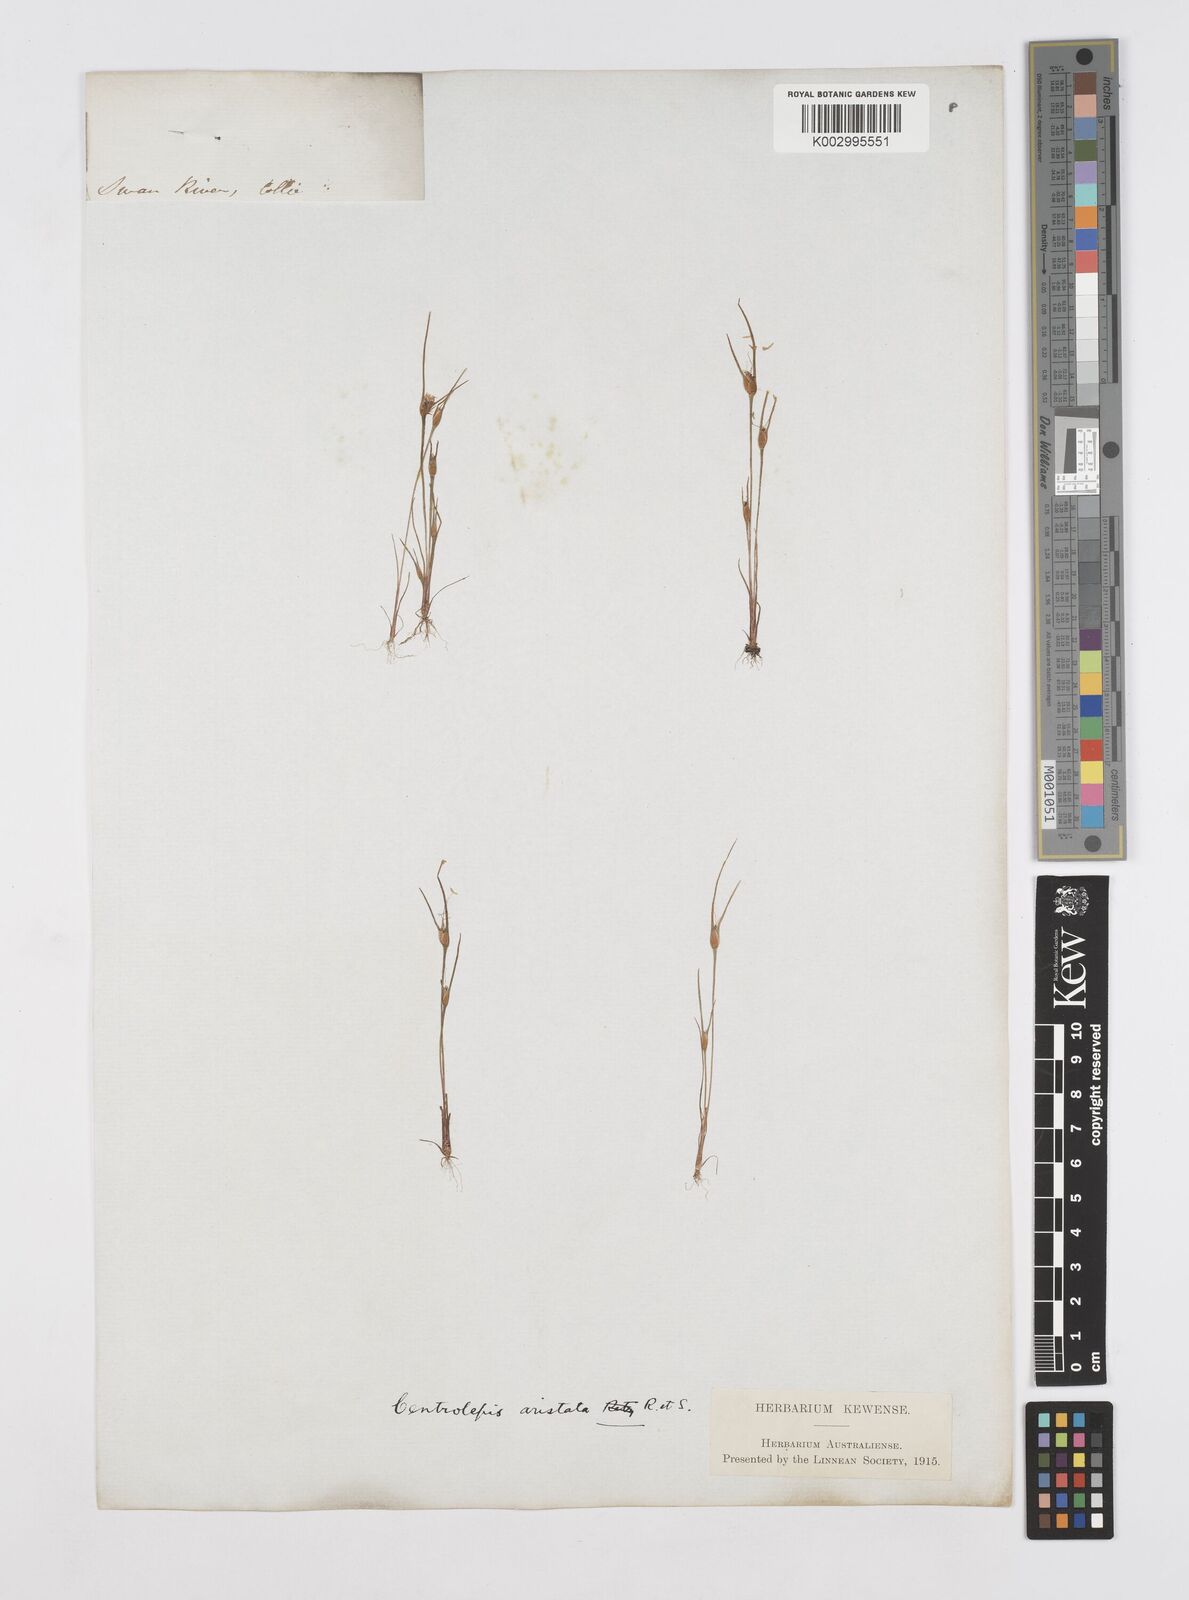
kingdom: Plantae
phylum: Tracheophyta
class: Liliopsida
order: Poales
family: Restionaceae
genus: Centrolepis
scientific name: Centrolepis aristata
